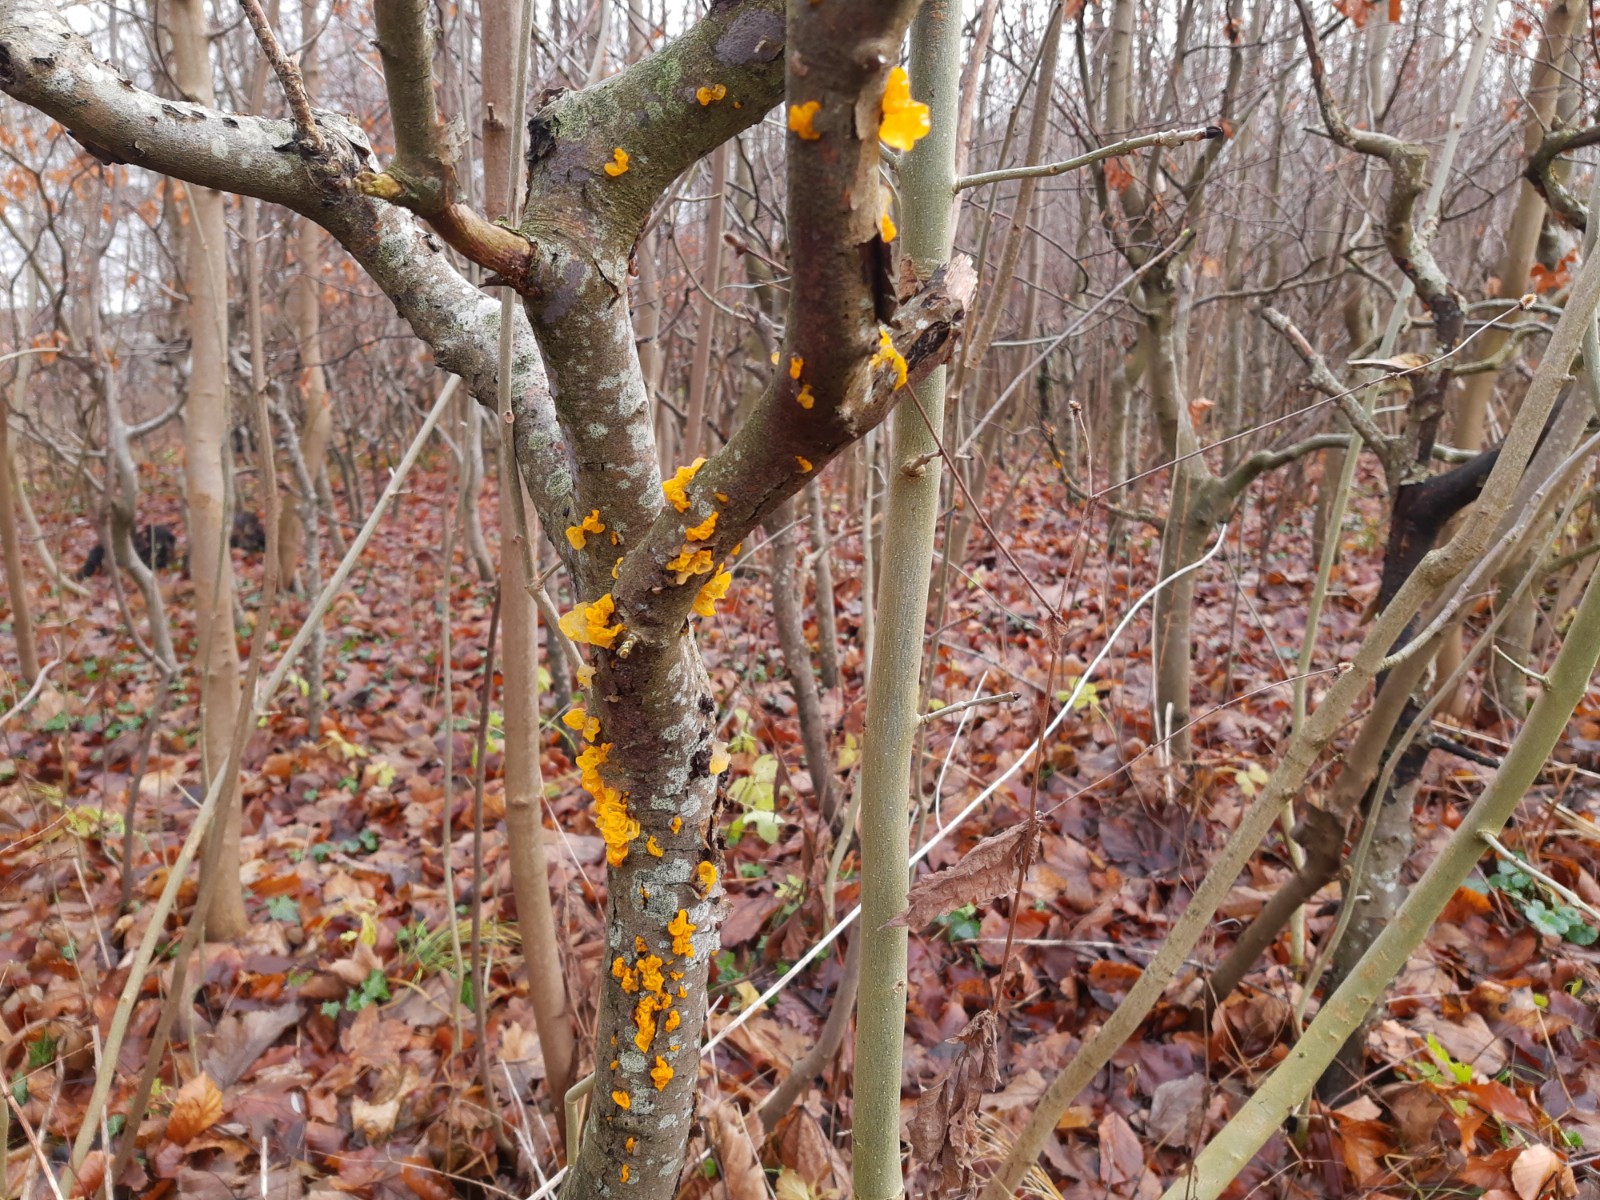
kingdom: Fungi
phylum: Basidiomycota
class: Tremellomycetes
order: Tremellales
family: Tremellaceae
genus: Tremella
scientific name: Tremella mesenterica
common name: gul bævresvamp
